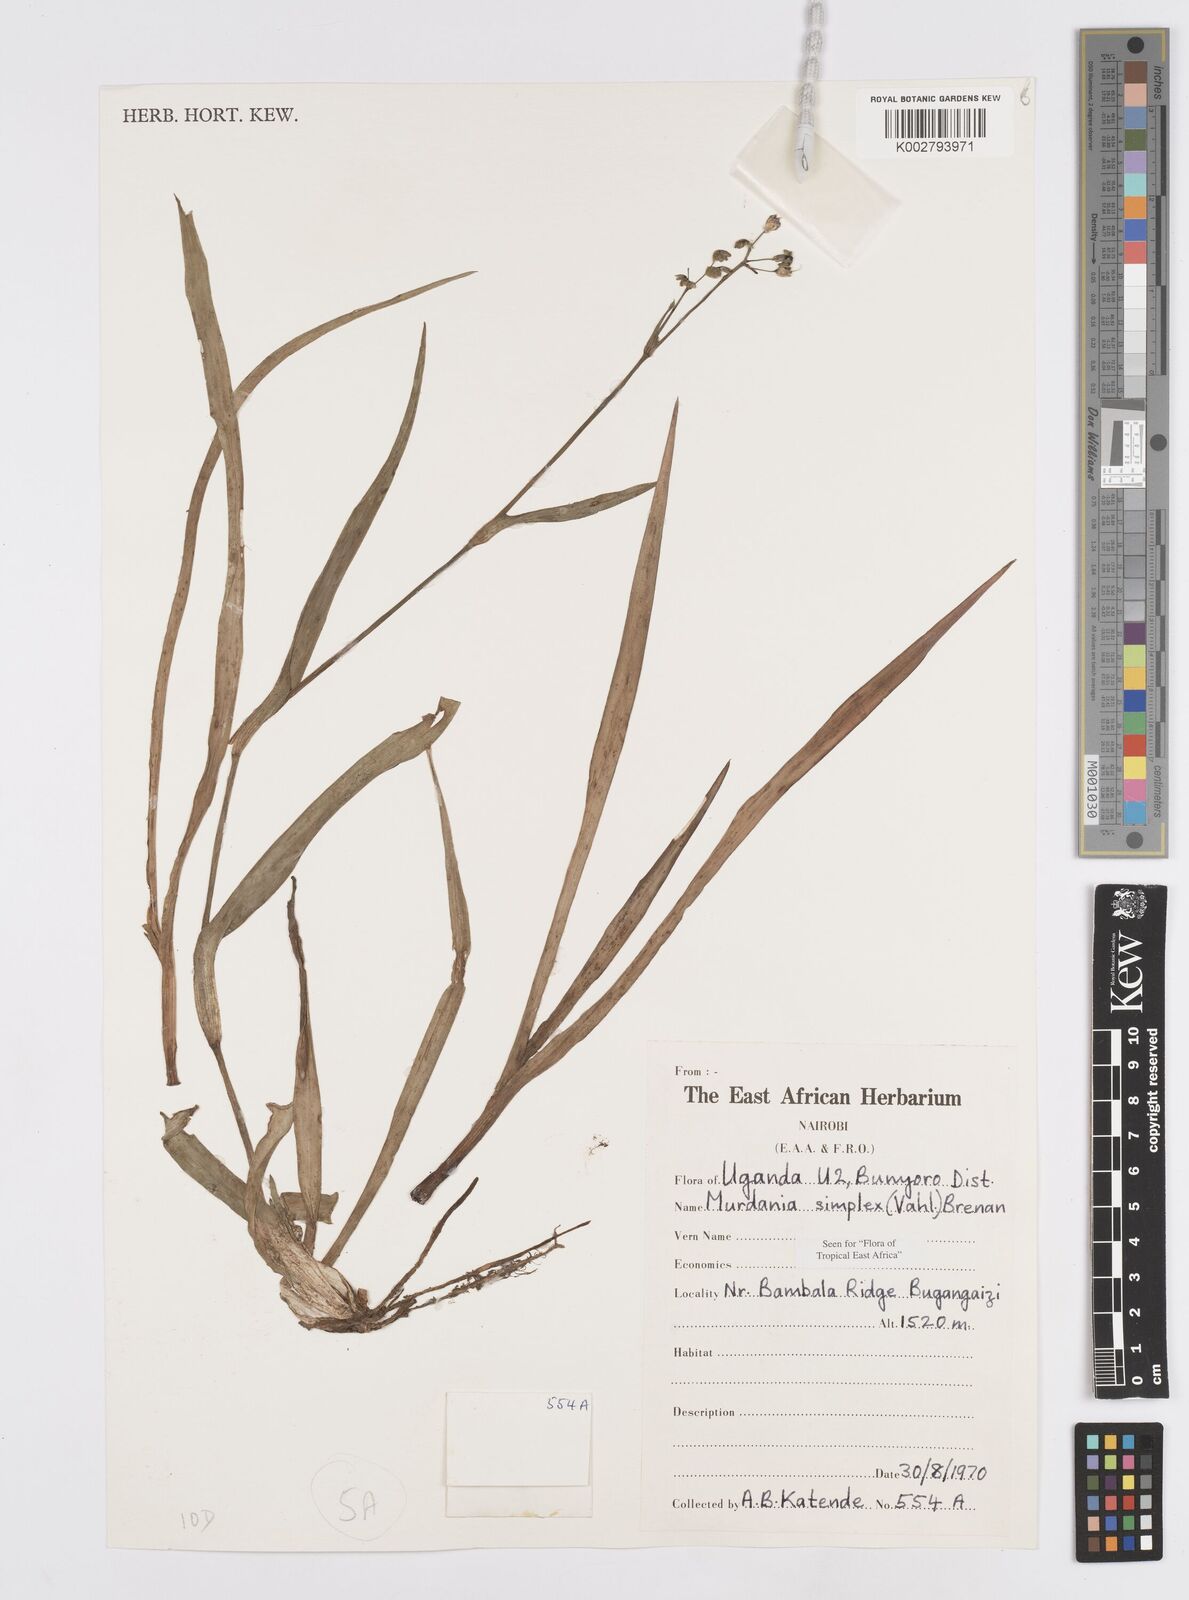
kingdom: Plantae
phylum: Tracheophyta
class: Liliopsida
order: Commelinales
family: Commelinaceae
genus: Murdannia
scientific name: Murdannia simplex
